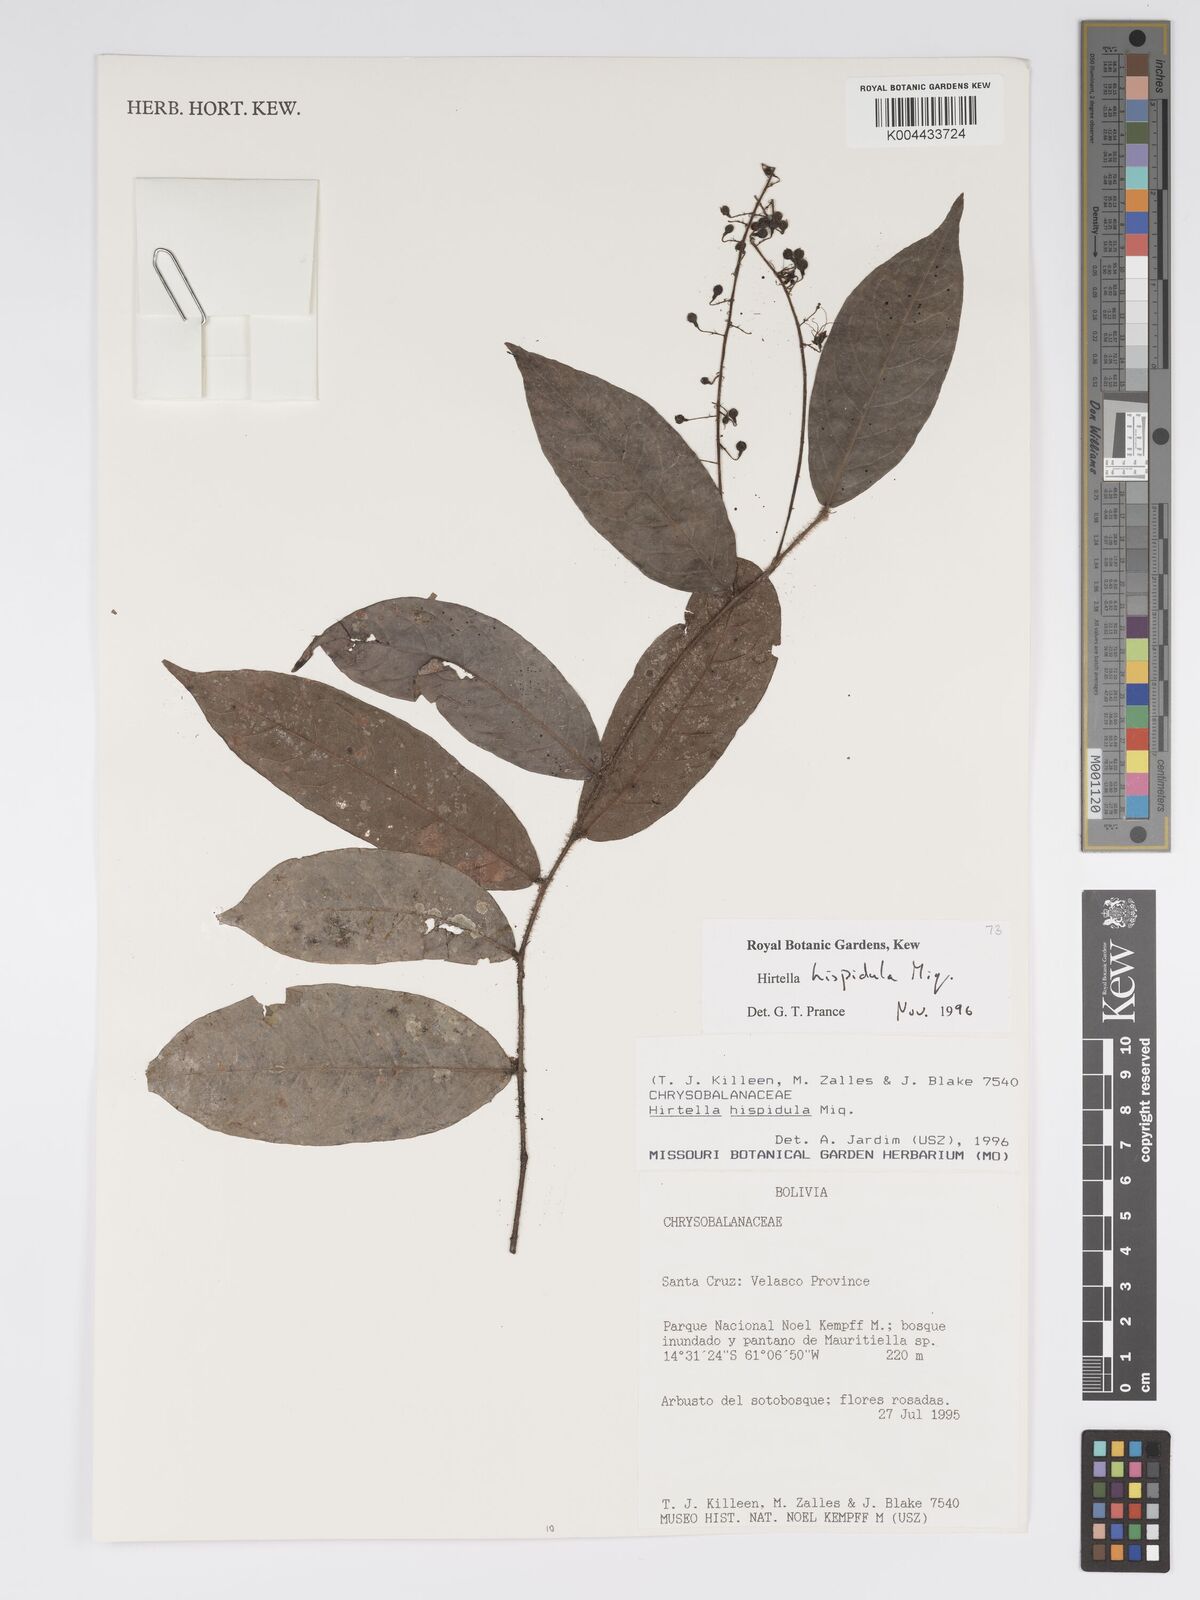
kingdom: Plantae
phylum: Tracheophyta
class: Magnoliopsida
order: Malpighiales
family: Chrysobalanaceae
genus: Hirtella
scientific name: Hirtella hispidula
